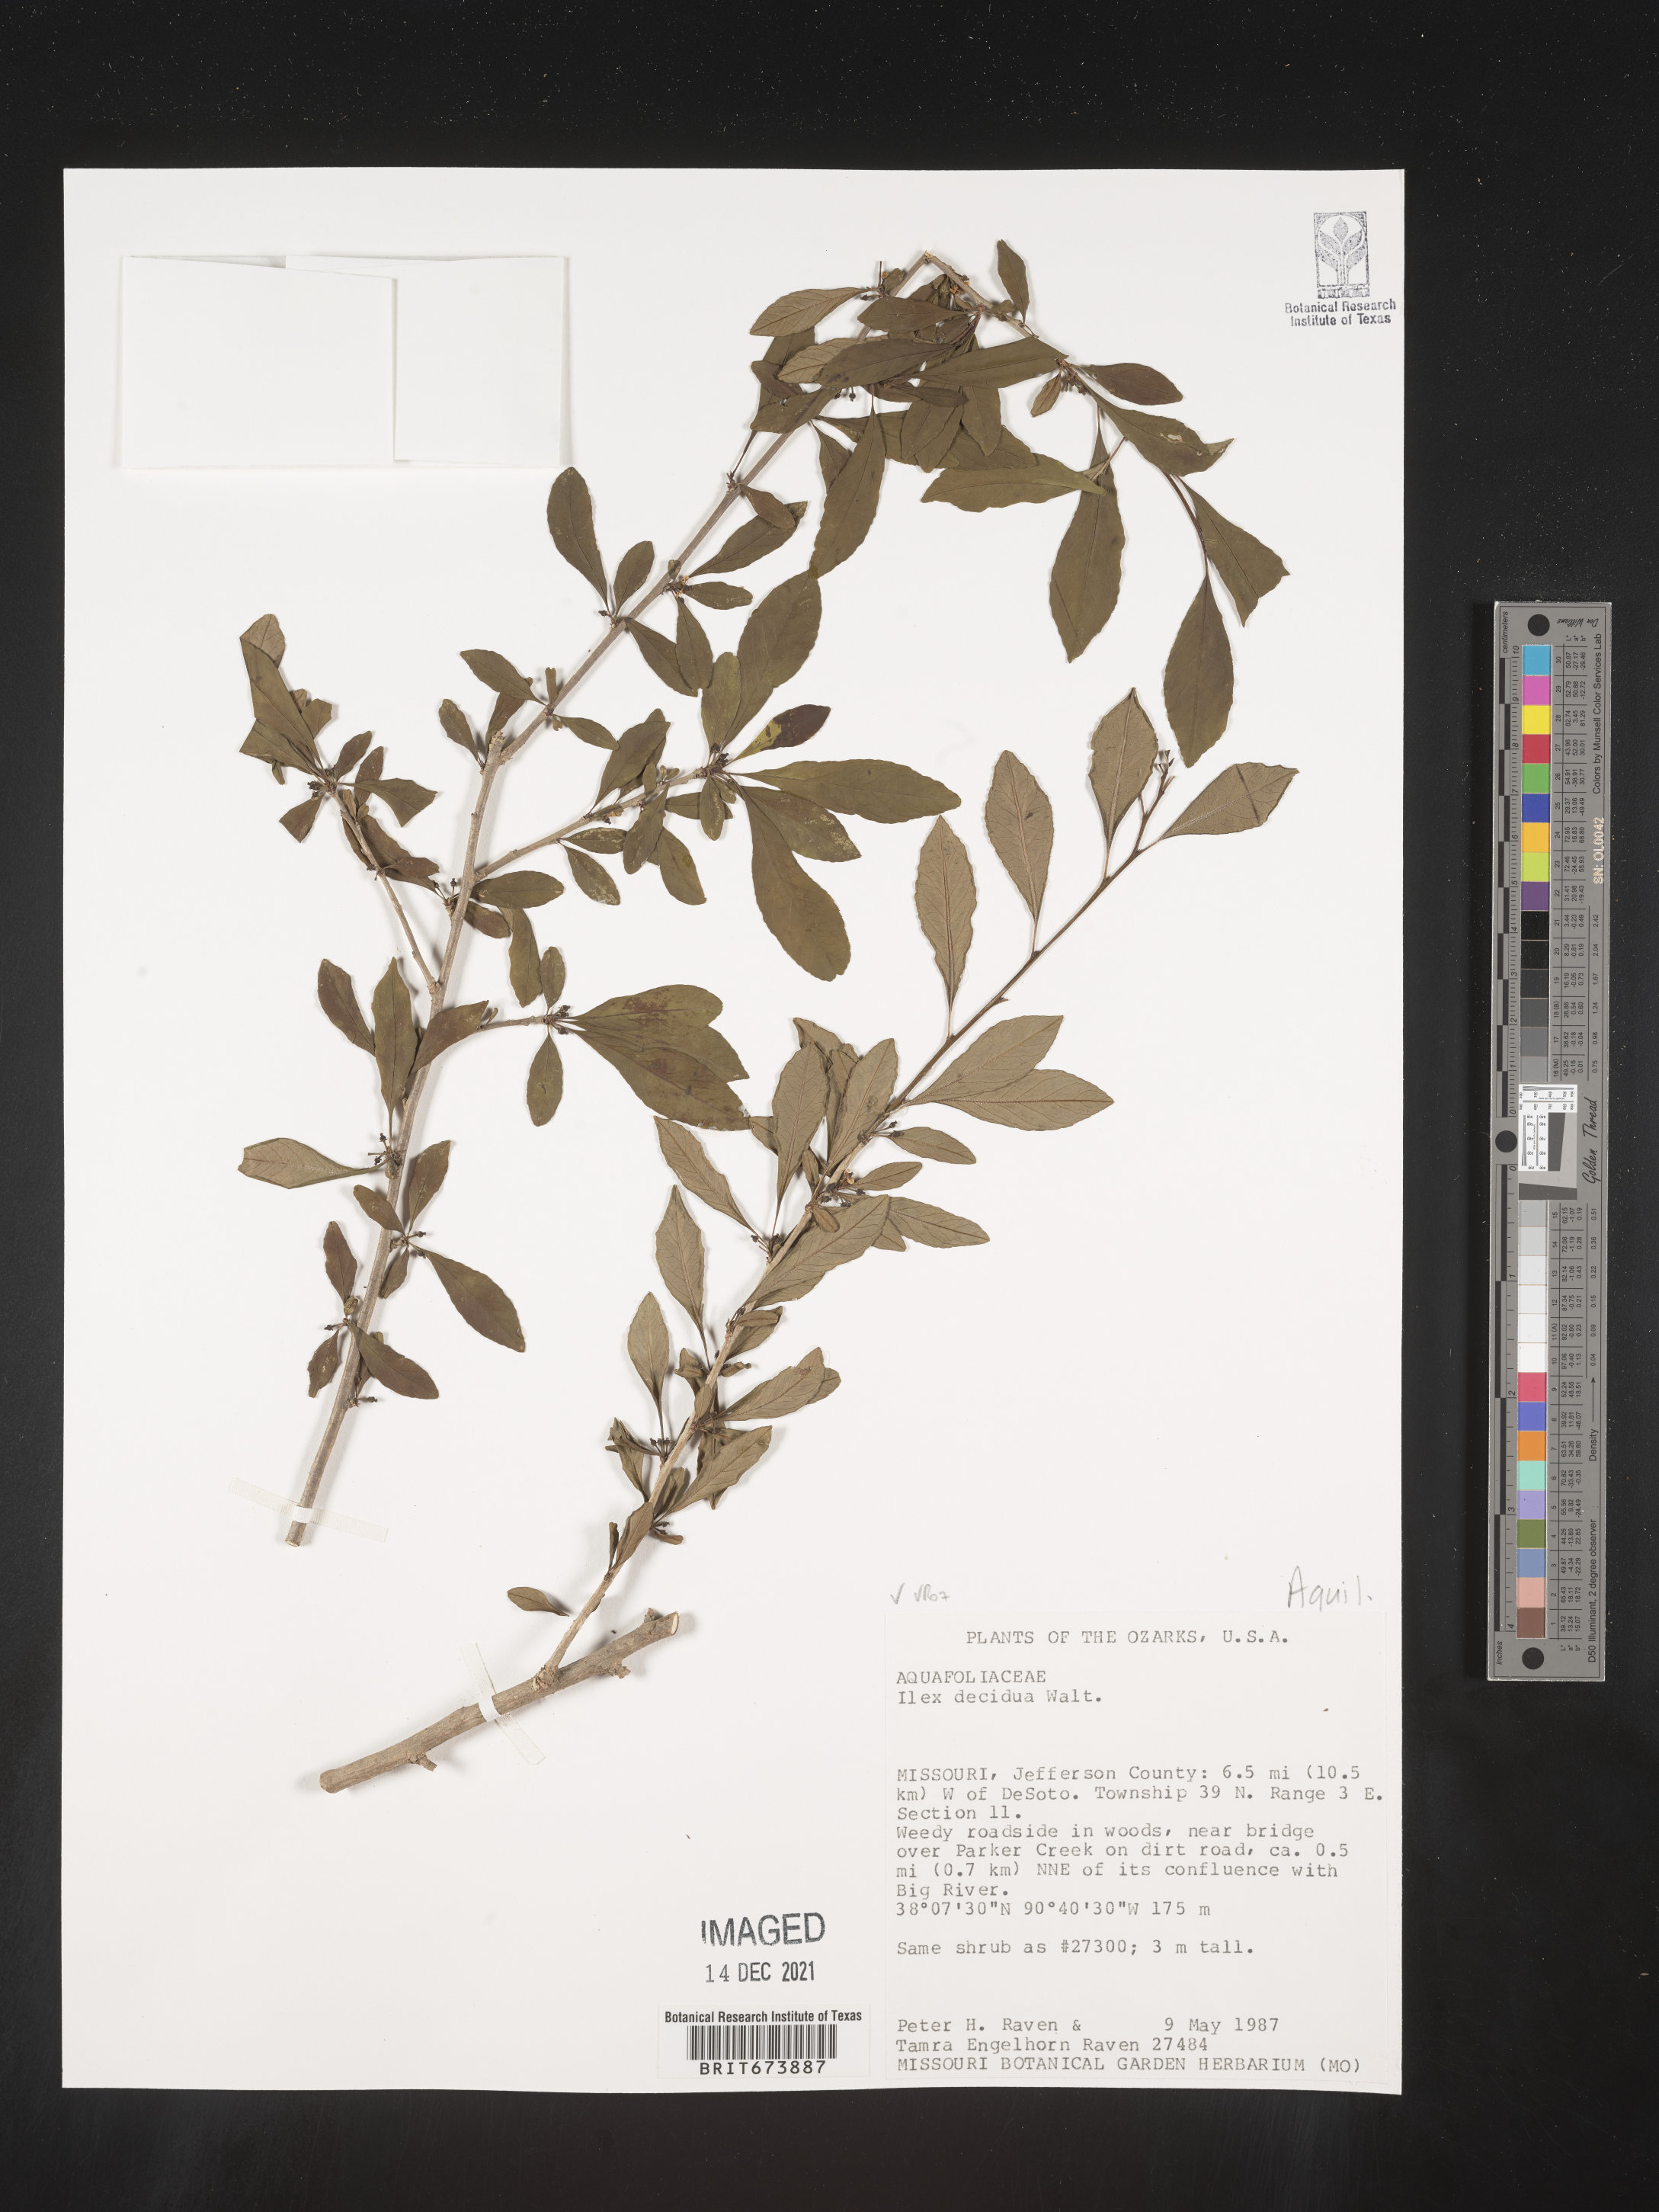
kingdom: Plantae
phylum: Tracheophyta
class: Magnoliopsida
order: Aquifoliales
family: Aquifoliaceae
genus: Ilex
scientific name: Ilex decidua
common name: Possum-haw
